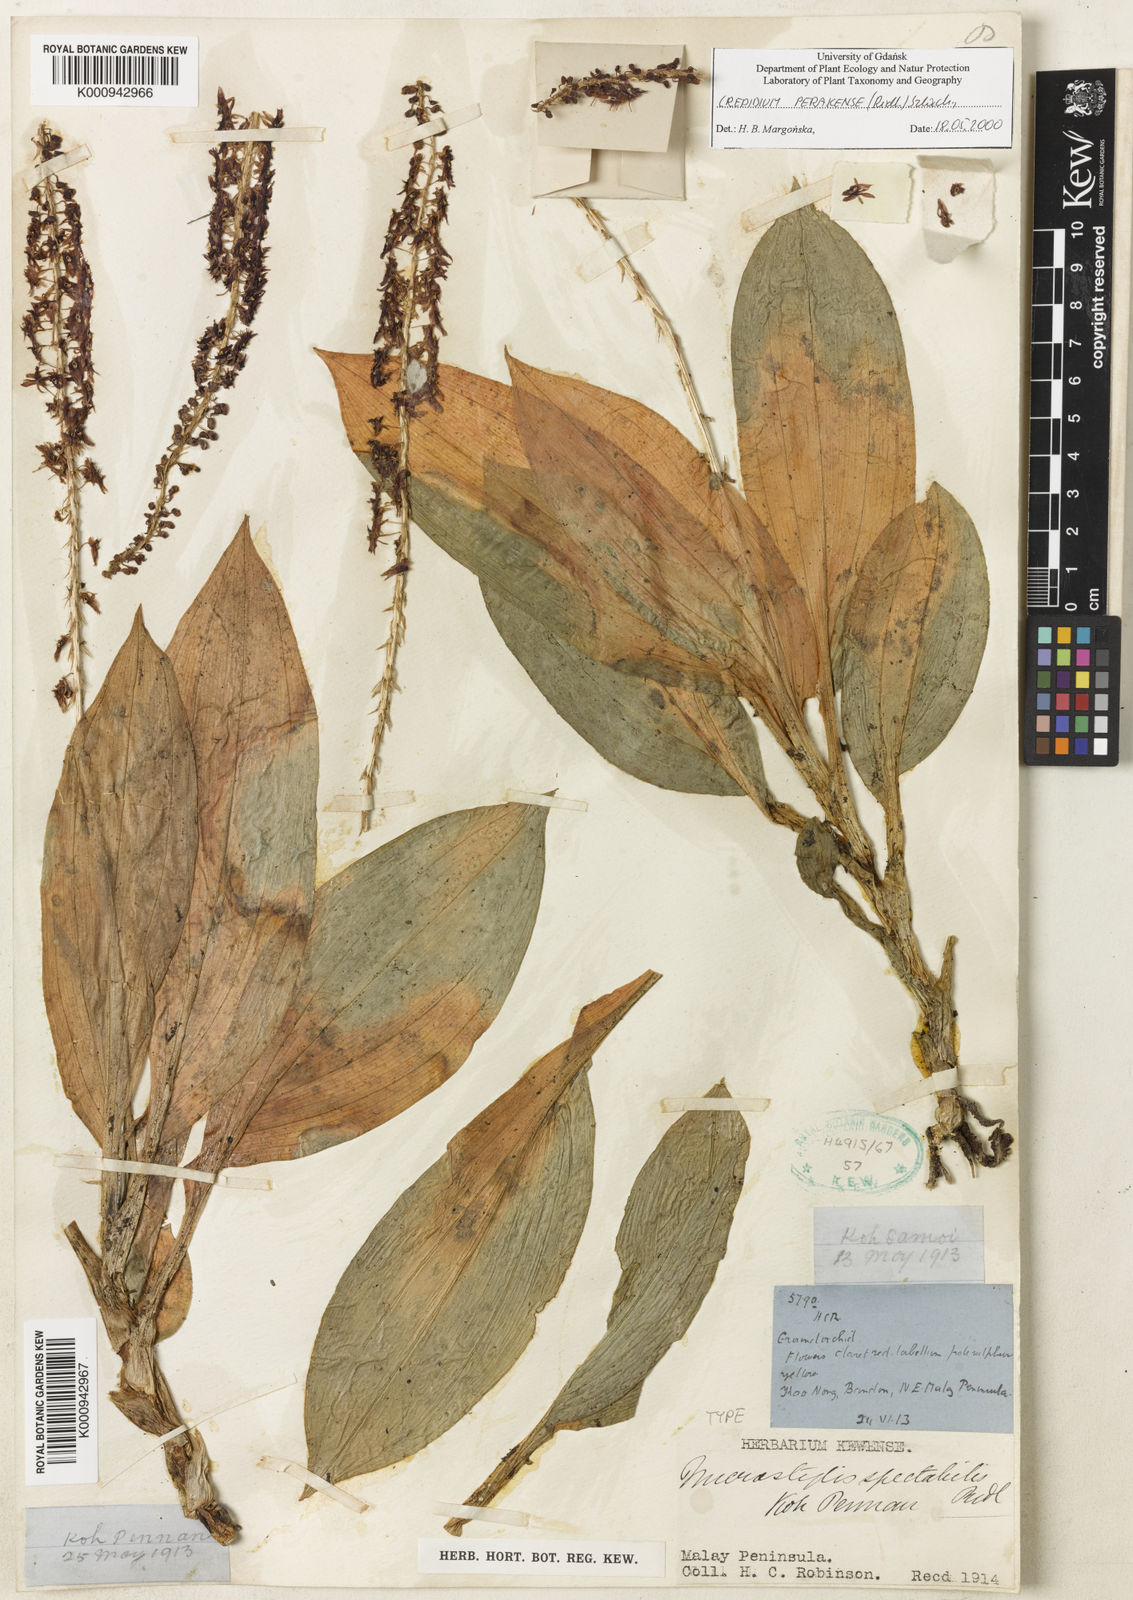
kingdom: Plantae
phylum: Tracheophyta
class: Liliopsida
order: Asparagales
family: Orchidaceae
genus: Crepidium
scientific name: Crepidium perakense
